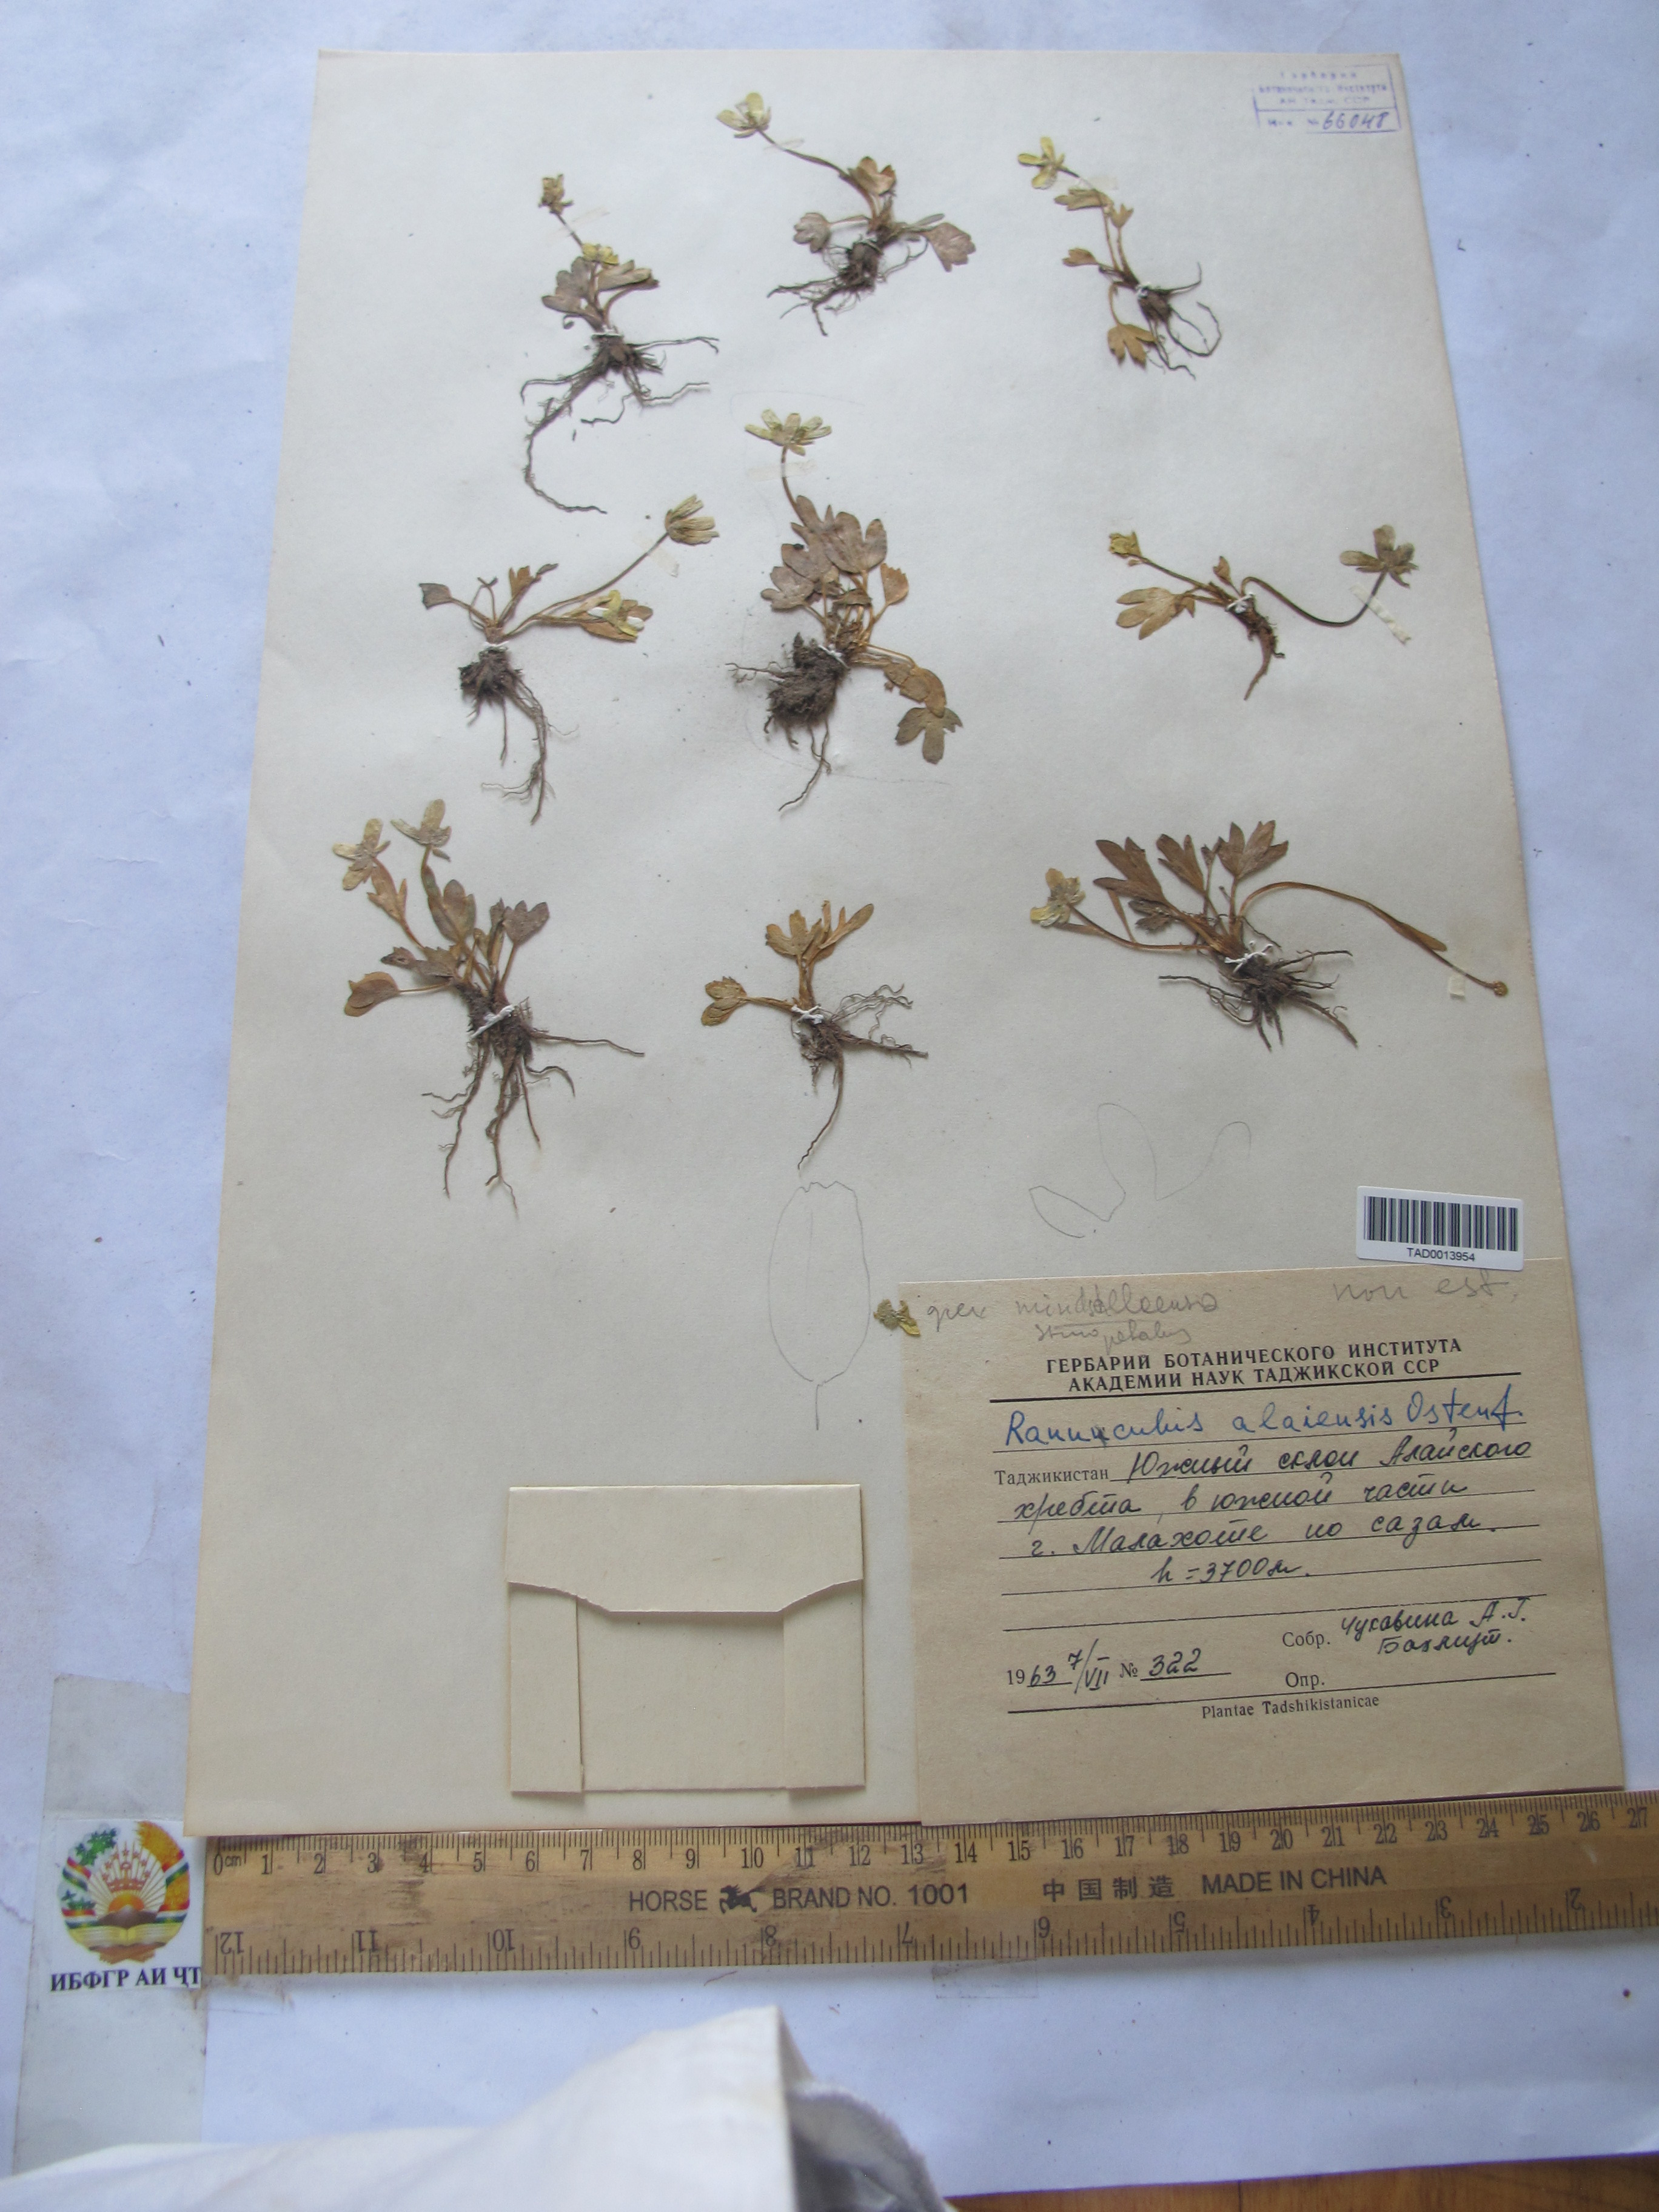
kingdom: Plantae
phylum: Tracheophyta
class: Magnoliopsida
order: Ranunculales
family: Ranunculaceae
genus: Ranunculus
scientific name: Ranunculus alaiensis
